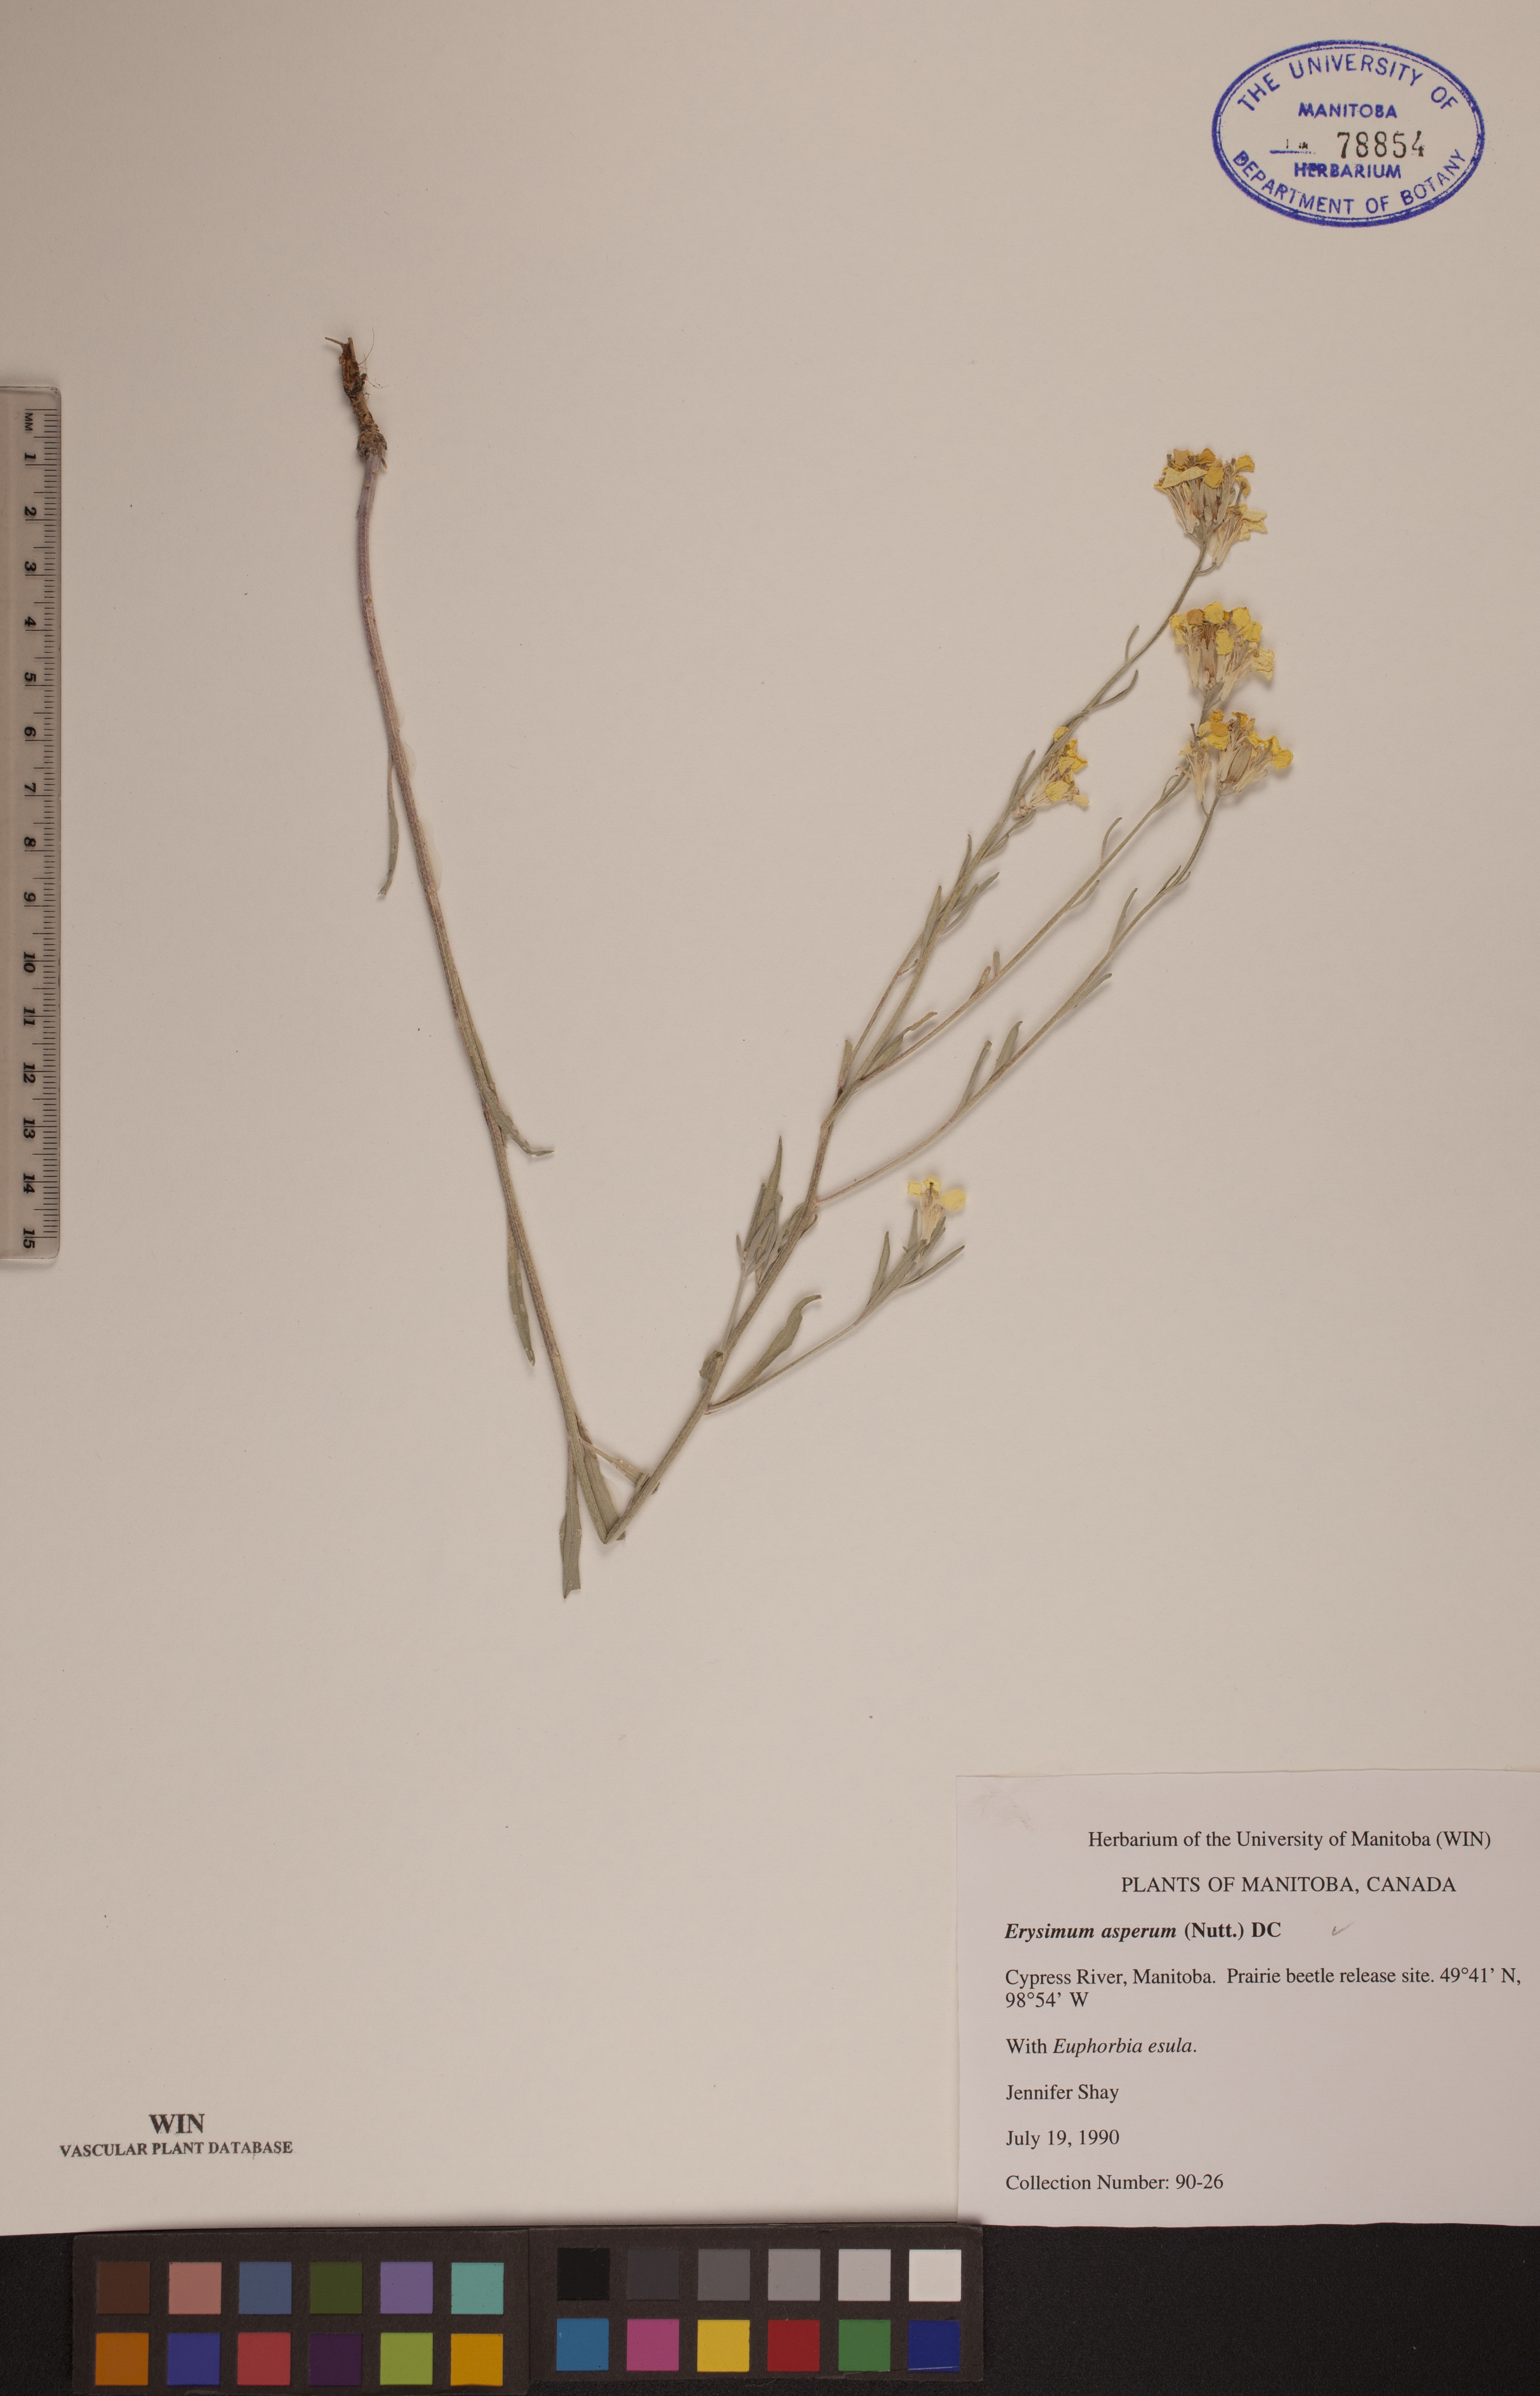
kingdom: Plantae
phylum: Tracheophyta
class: Magnoliopsida
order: Brassicales
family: Brassicaceae
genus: Erysimum
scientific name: Erysimum asperum
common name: Western wallflower
